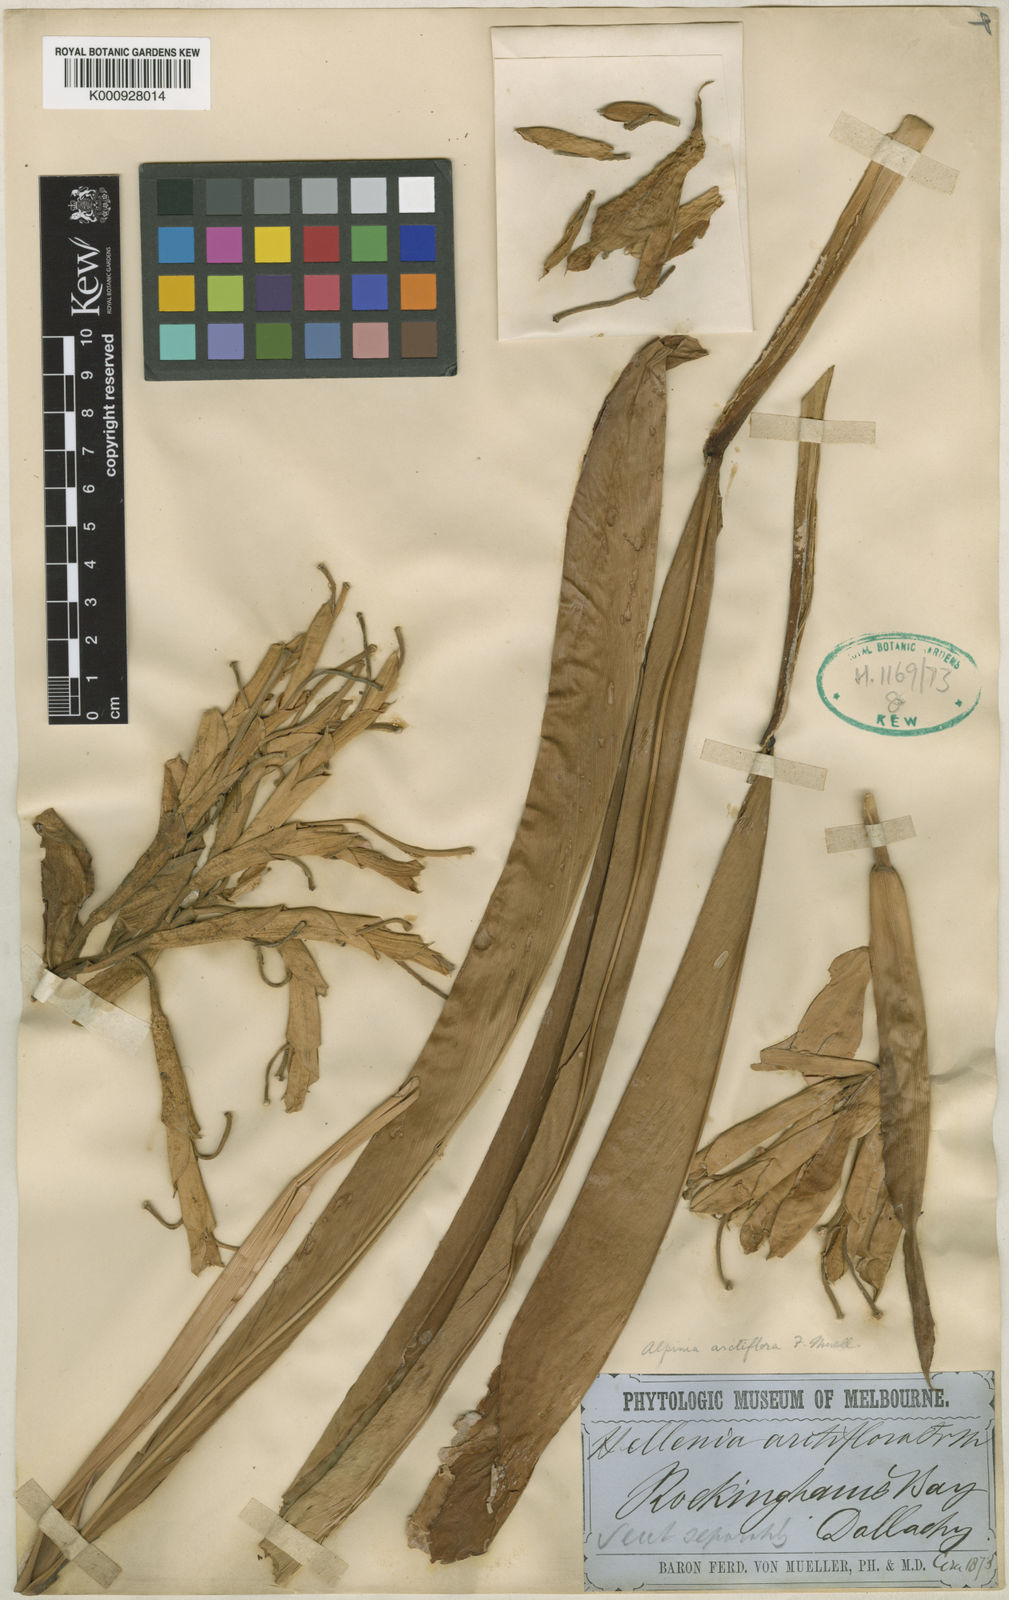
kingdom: Plantae
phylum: Tracheophyta
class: Liliopsida
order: Zingiberales
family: Zingiberaceae
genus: Alpinia
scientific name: Alpinia arctiflora
